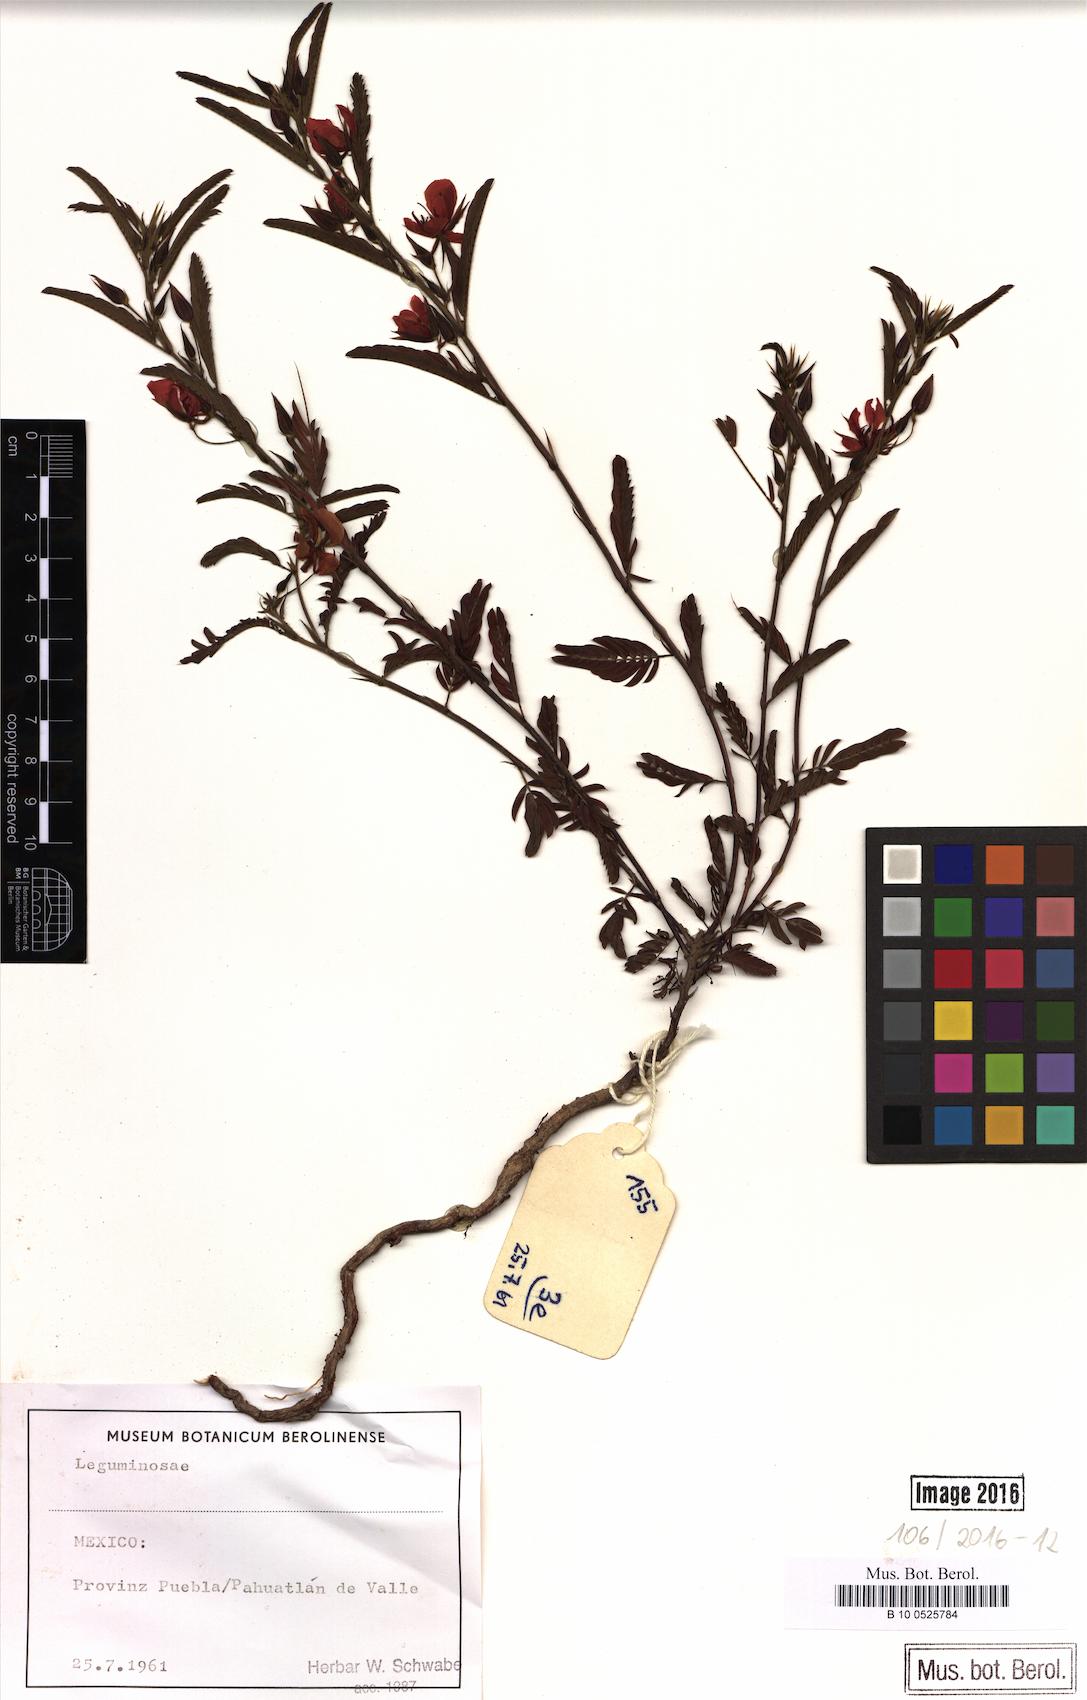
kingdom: Plantae
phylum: Tracheophyta
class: Magnoliopsida
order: Fabales
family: Fabaceae
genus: Chamaecrista
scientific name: Chamaecrista
